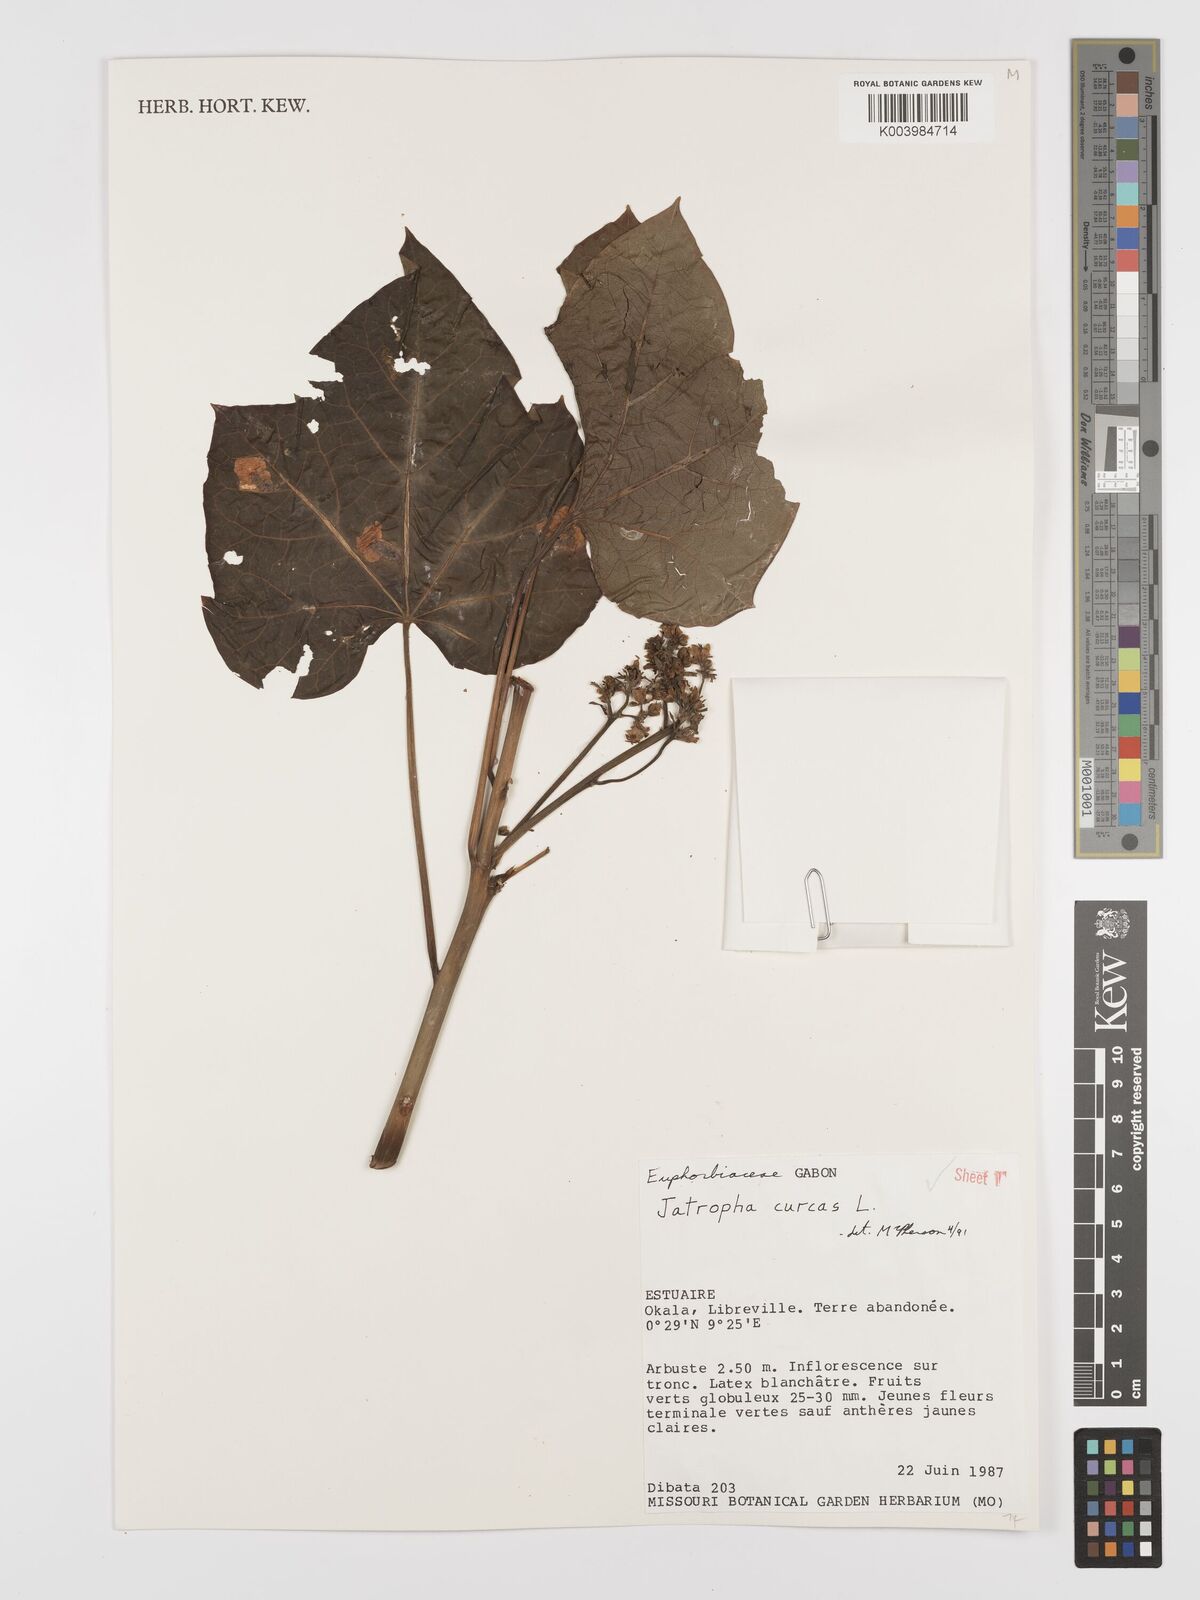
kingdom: Plantae
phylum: Tracheophyta
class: Magnoliopsida
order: Malpighiales
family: Euphorbiaceae
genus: Jatropha
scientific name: Jatropha curcas
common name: Barbados nut
